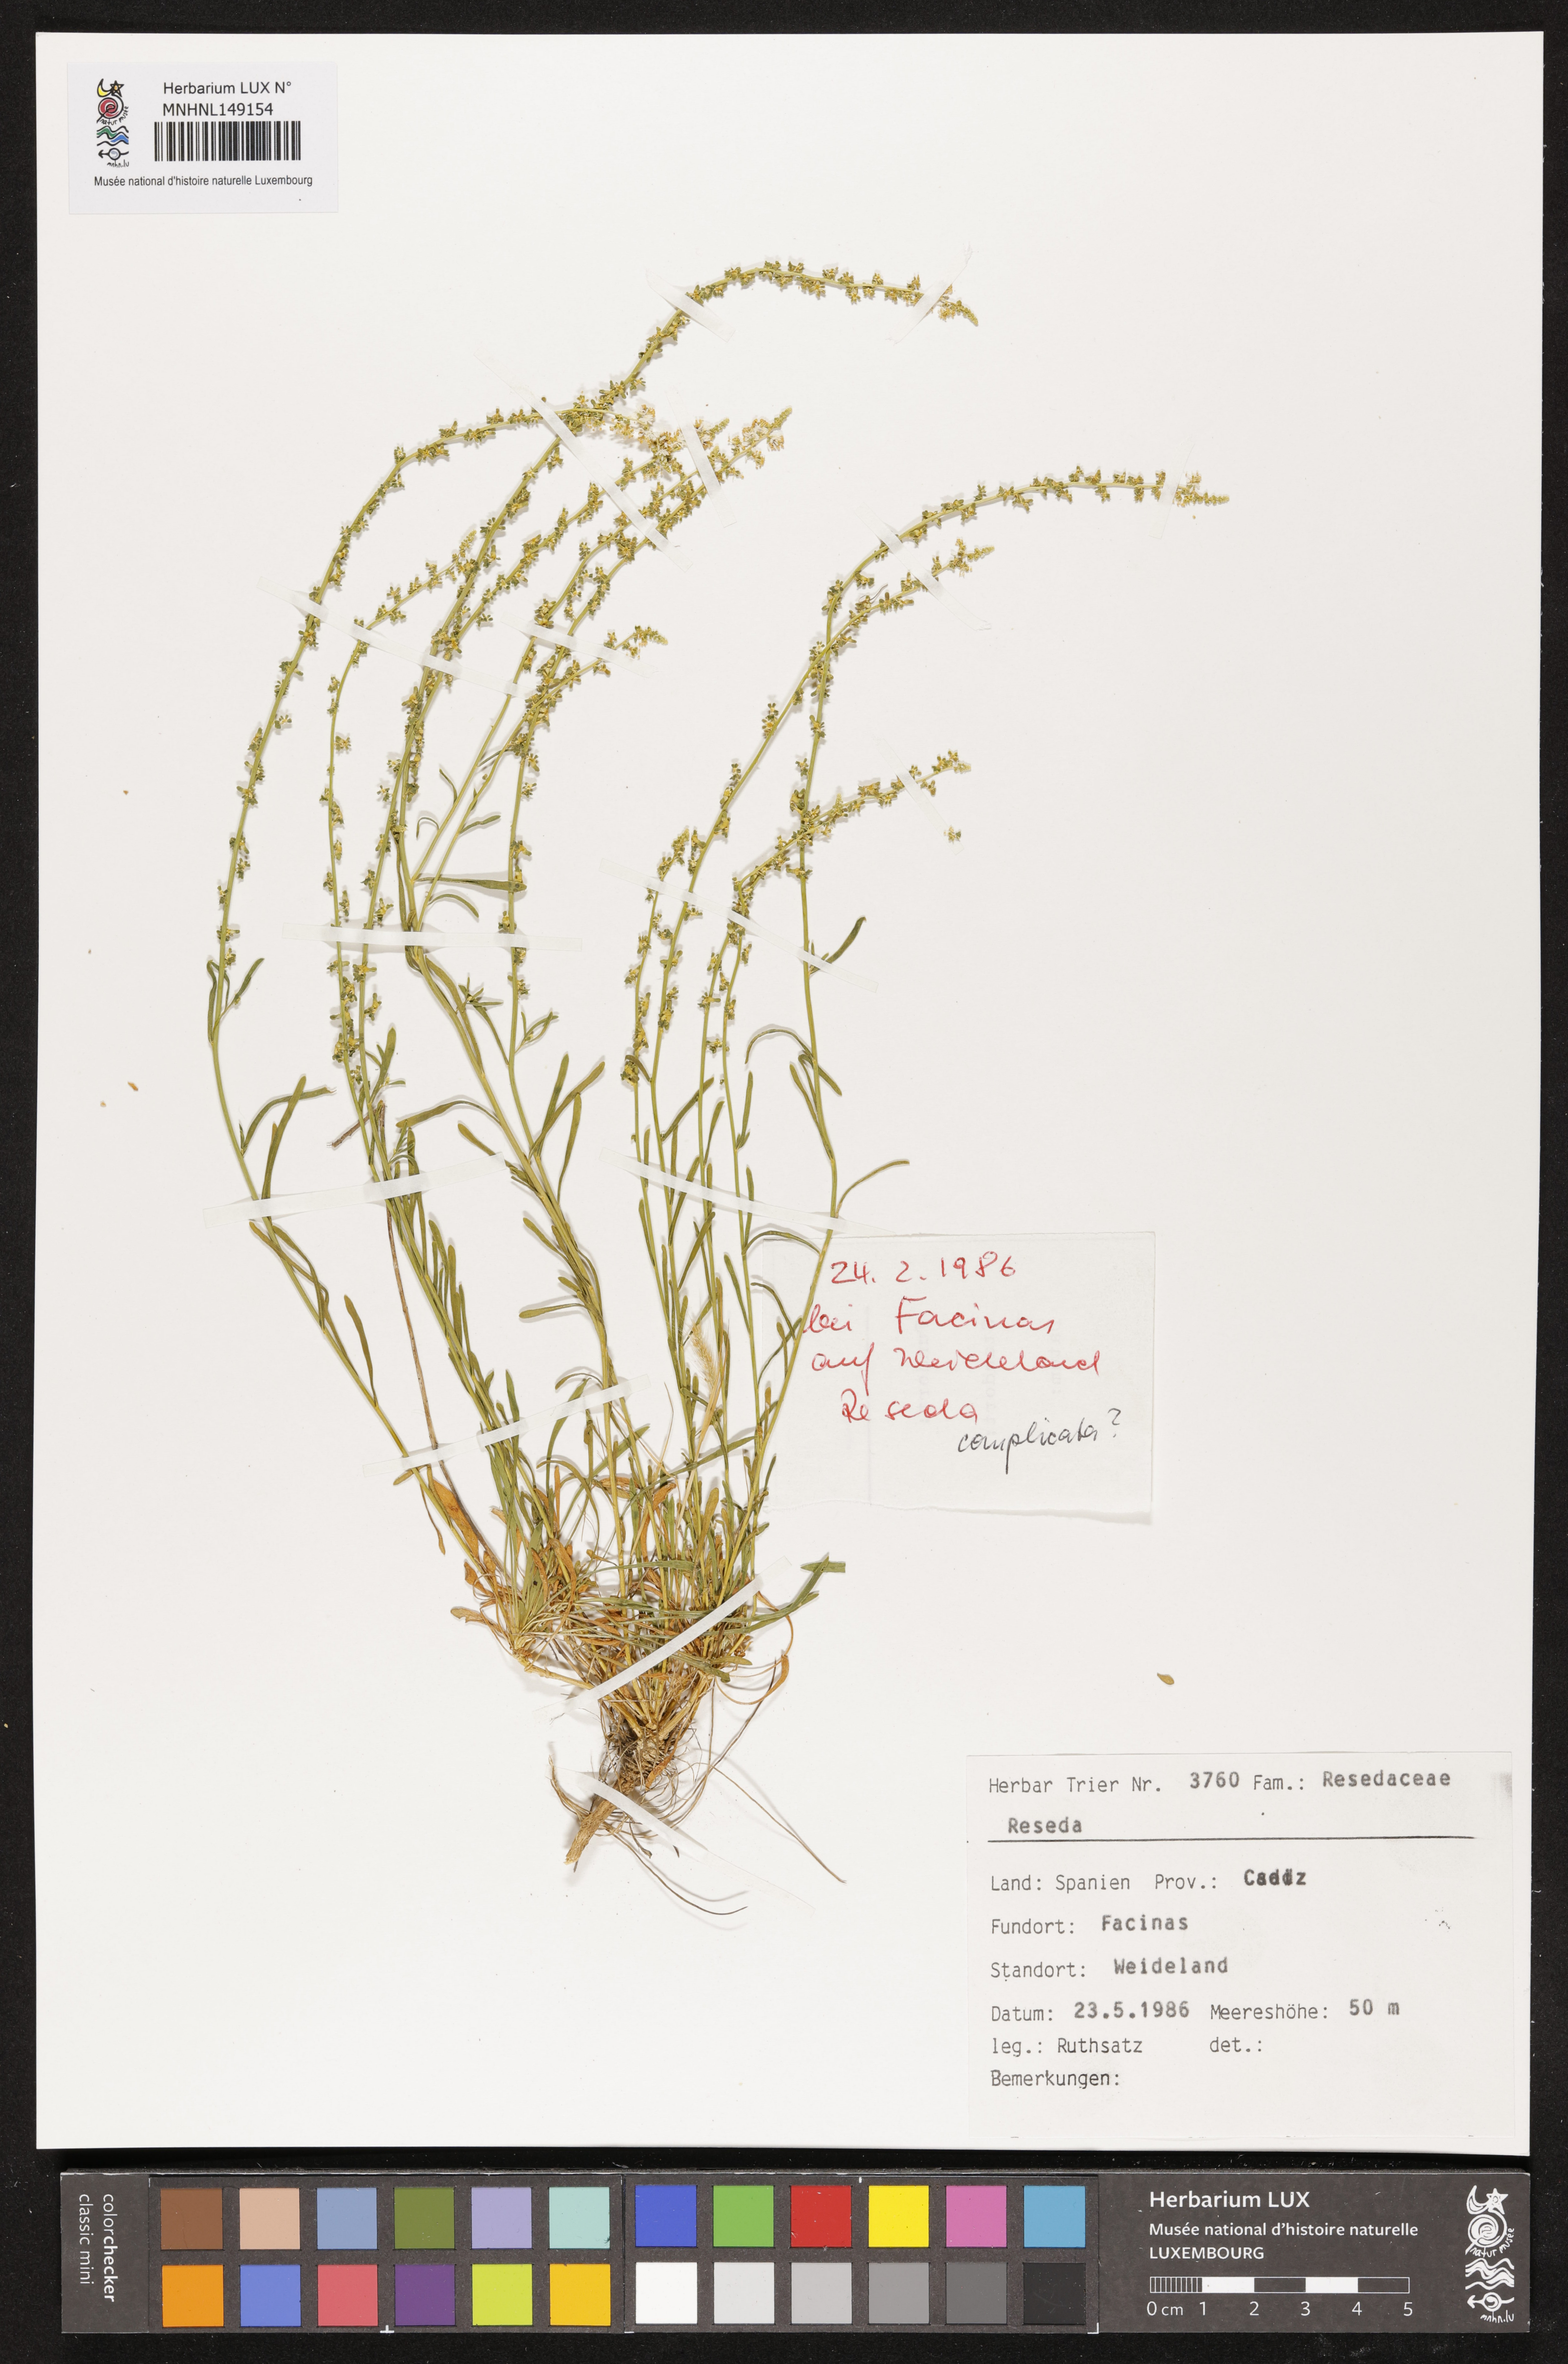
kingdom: Plantae
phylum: Tracheophyta
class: Magnoliopsida
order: Brassicales
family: Resedaceae
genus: Reseda
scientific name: Reseda
